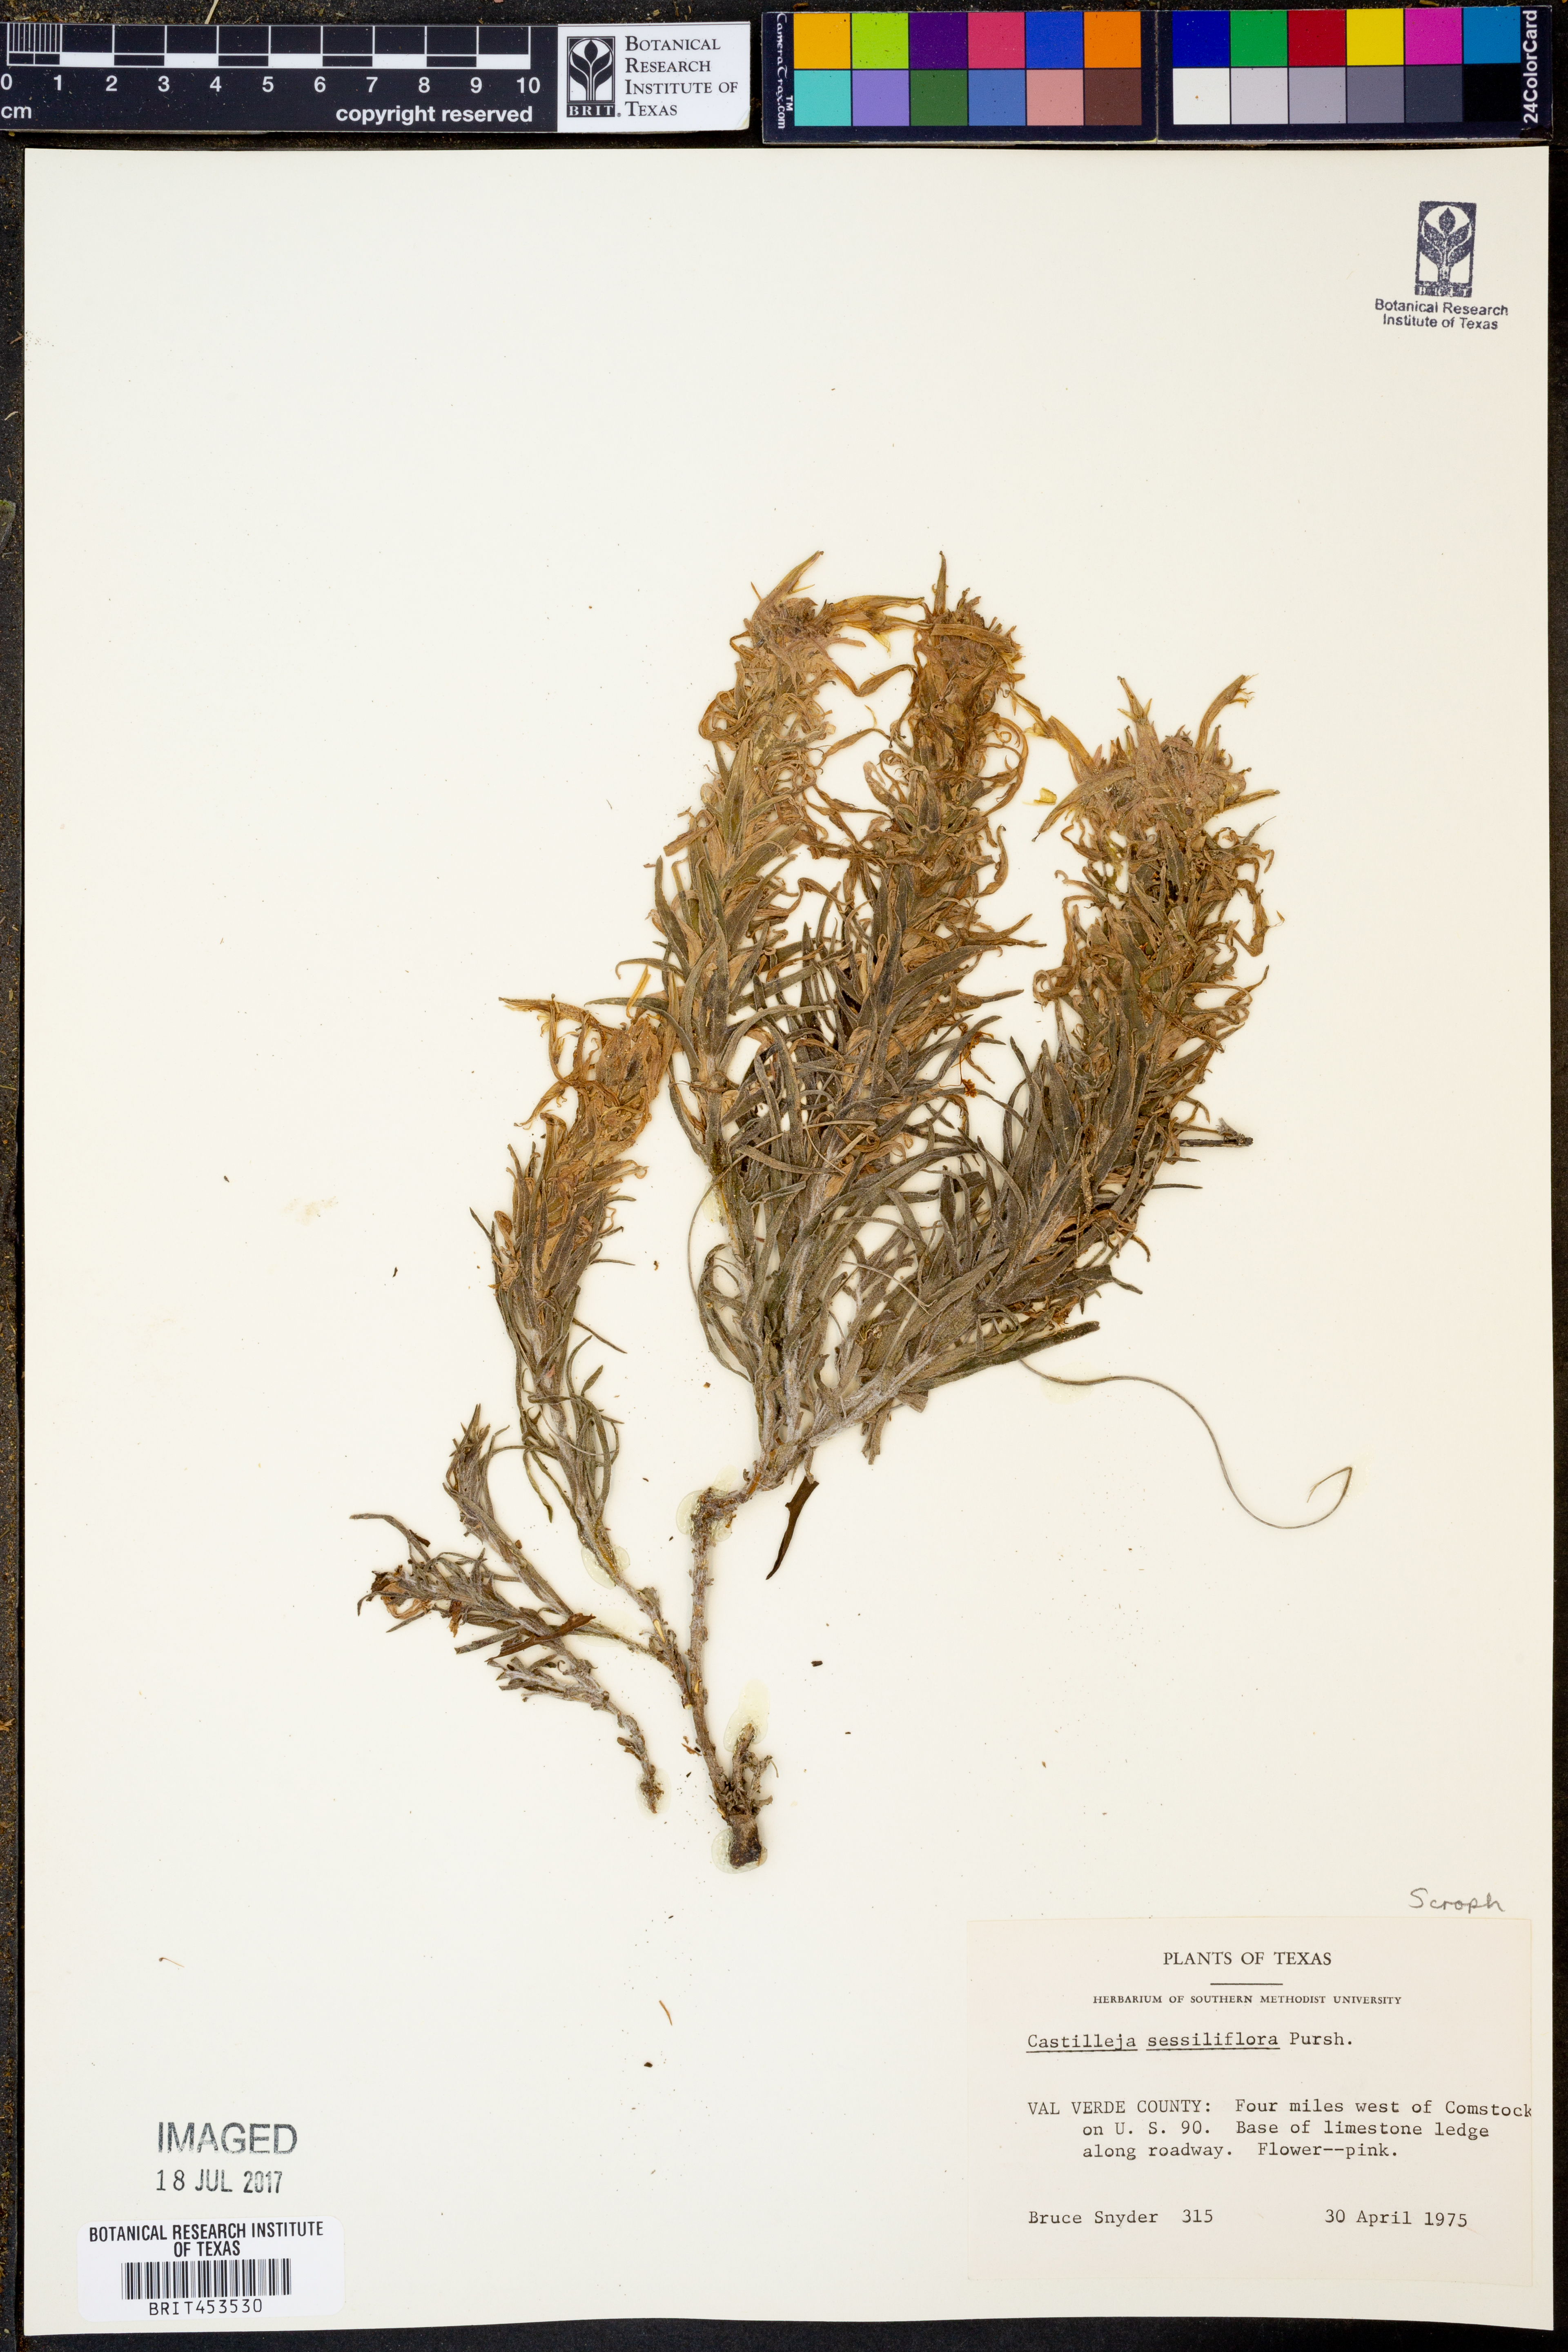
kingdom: Plantae
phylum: Tracheophyta
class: Magnoliopsida
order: Lamiales
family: Orobanchaceae
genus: Castilleja
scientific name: Castilleja sessiliflora
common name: Downy paintbrush
